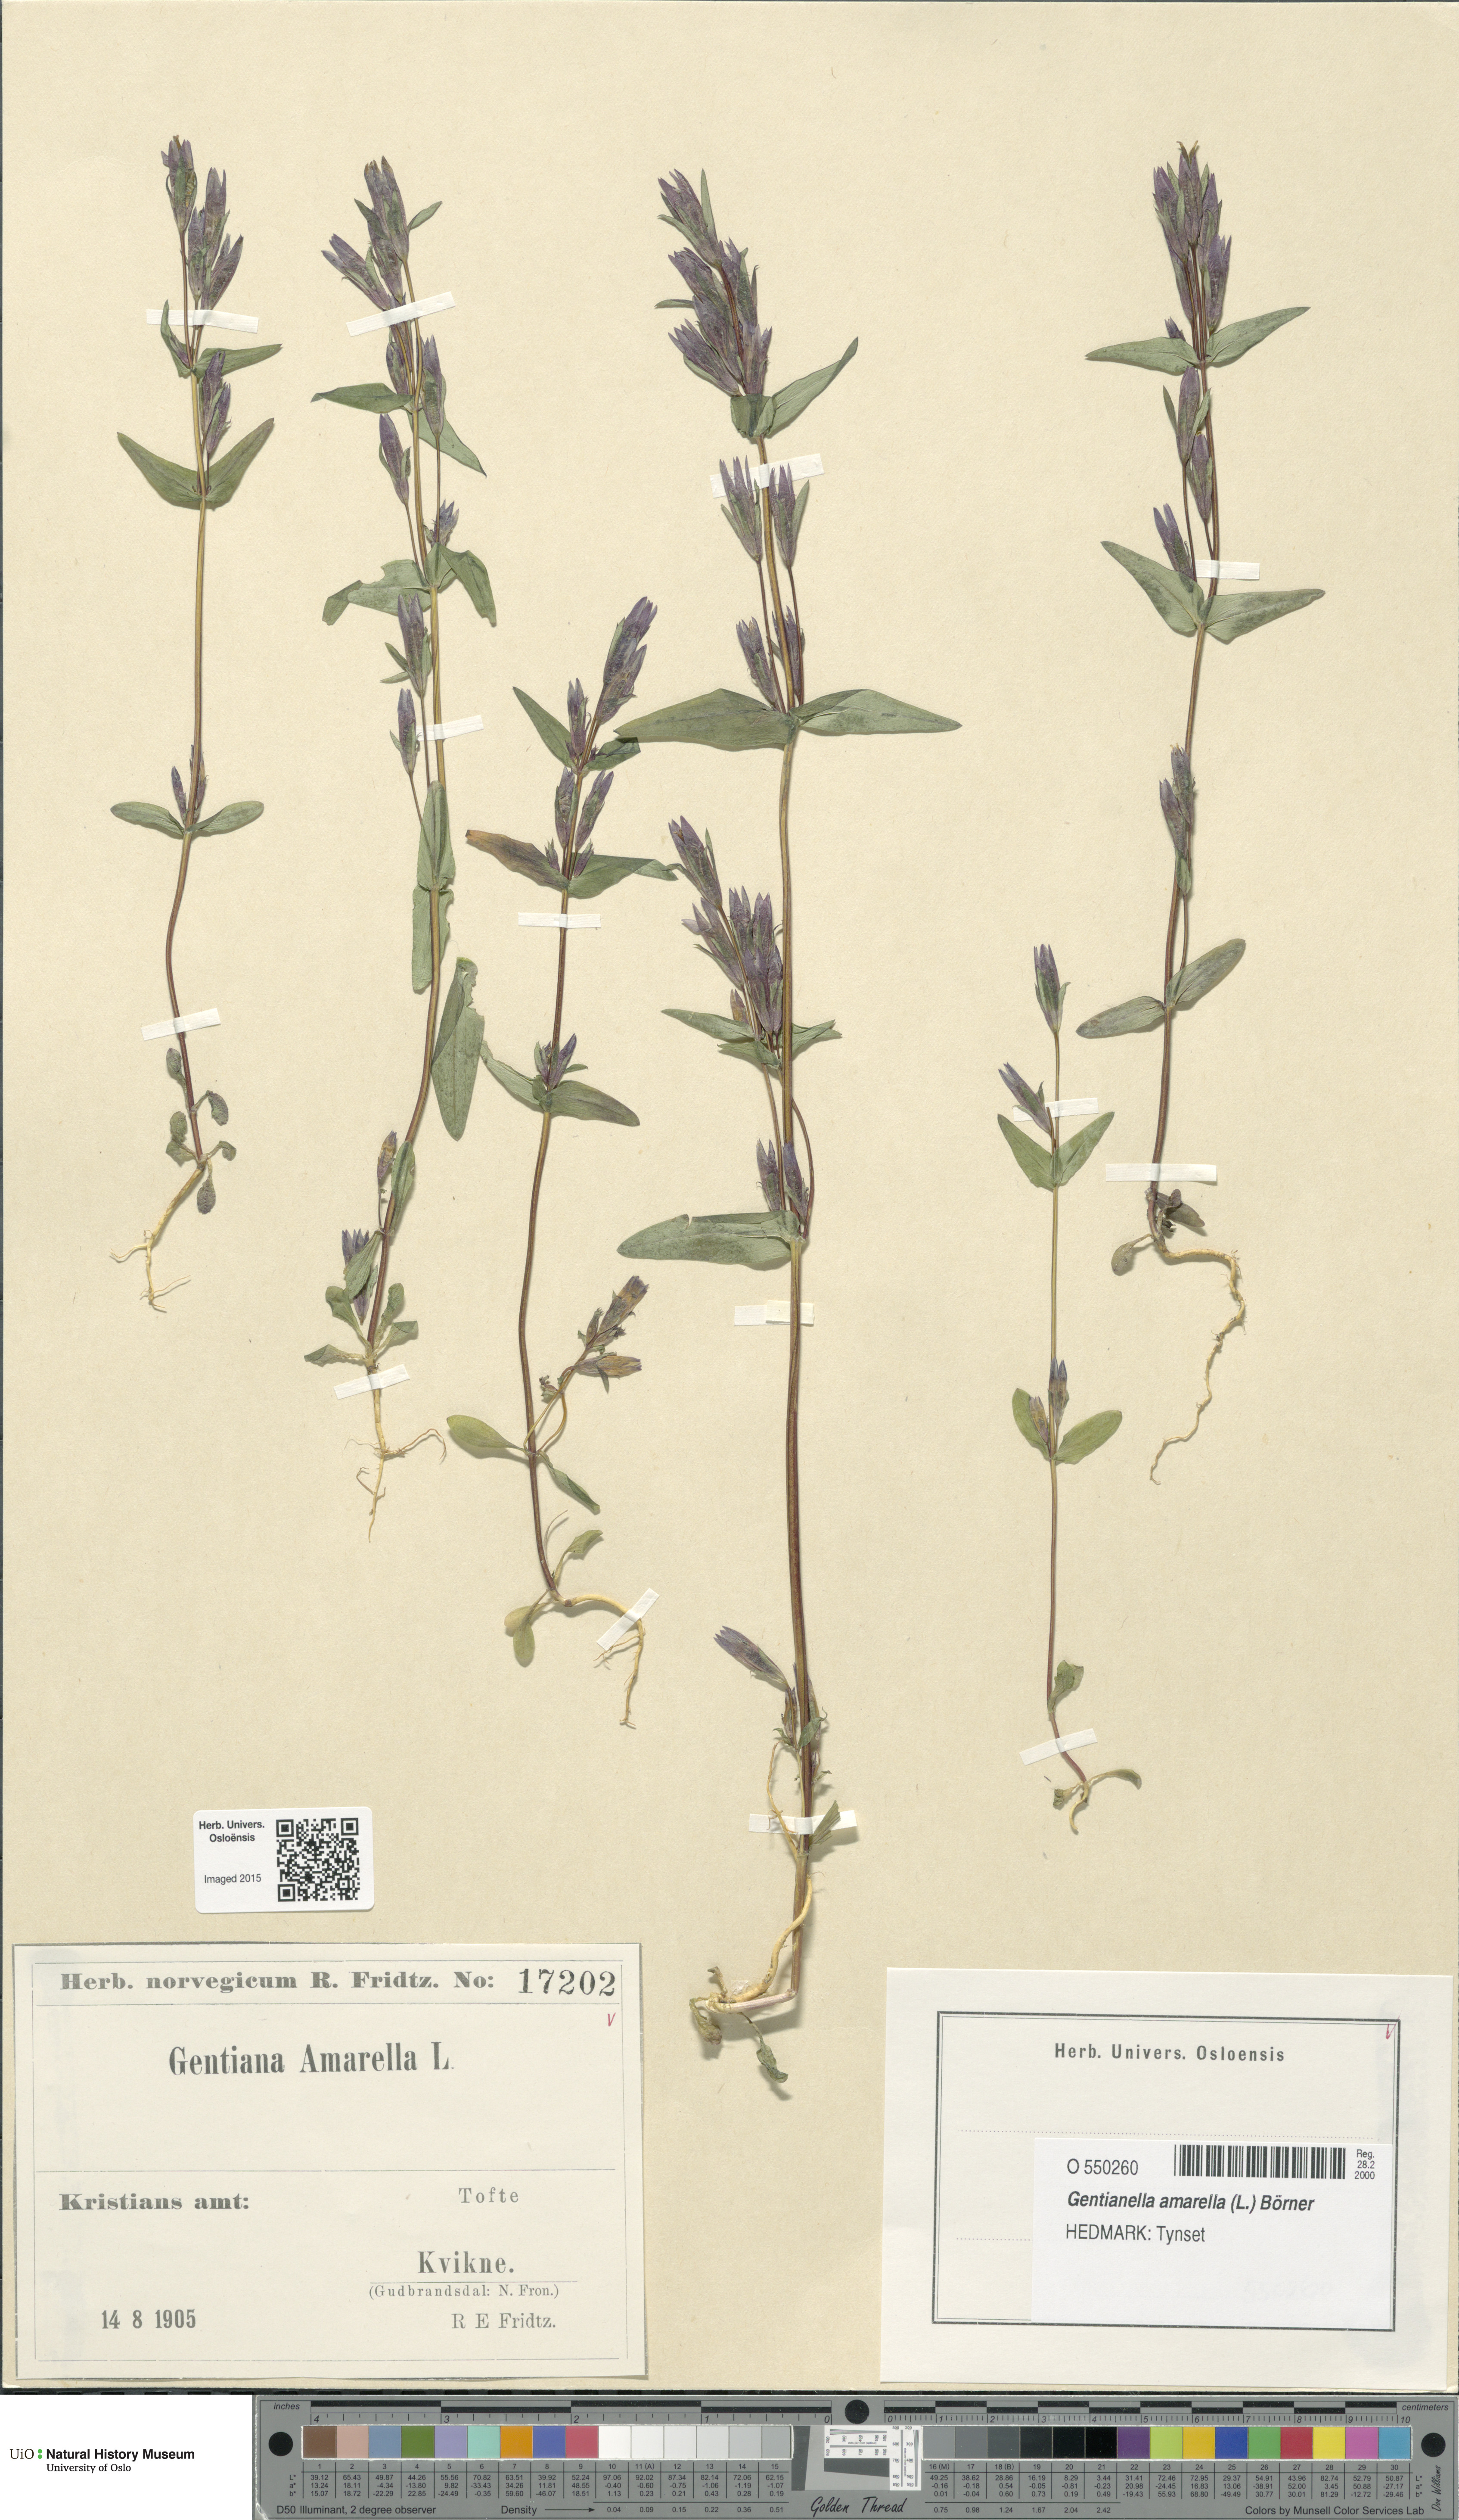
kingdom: Plantae
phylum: Tracheophyta
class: Magnoliopsida
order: Gentianales
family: Gentianaceae
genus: Gentianella
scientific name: Gentianella amarella
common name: Autumn gentian
